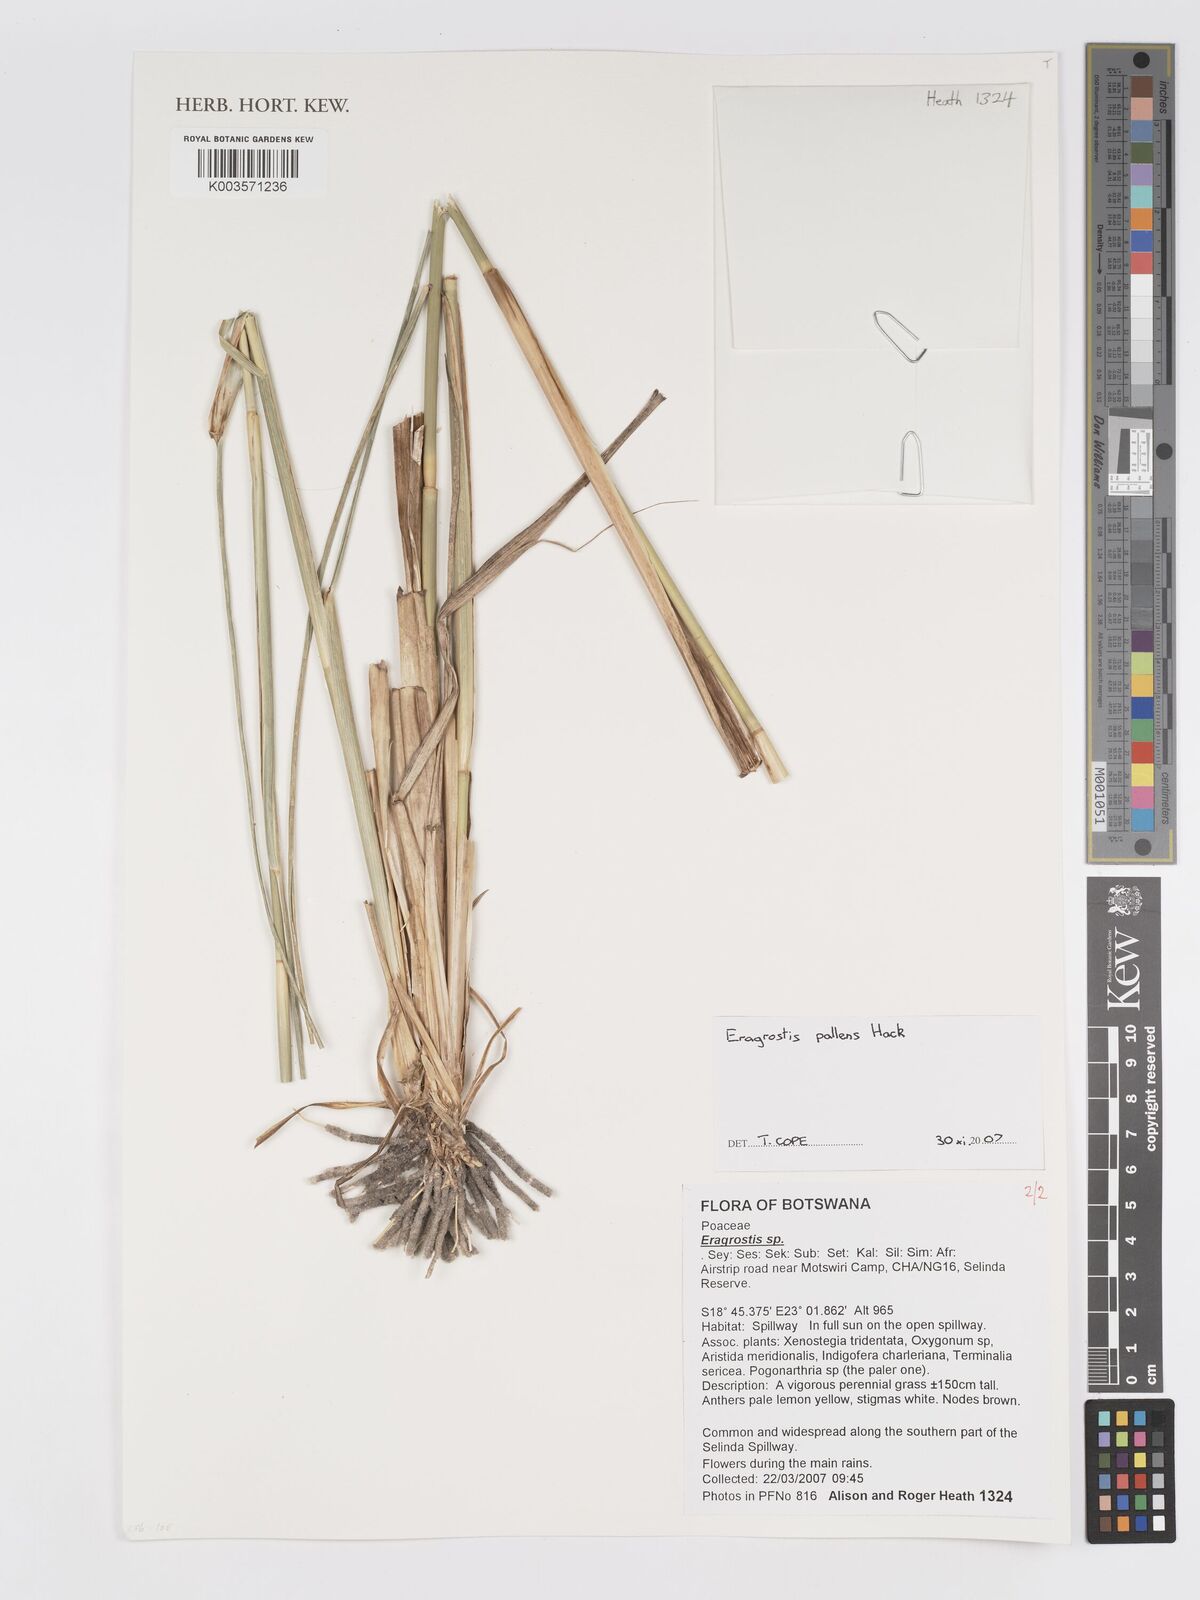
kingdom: Plantae
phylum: Tracheophyta
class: Liliopsida
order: Poales
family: Poaceae
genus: Eragrostis
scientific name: Eragrostis pallens
